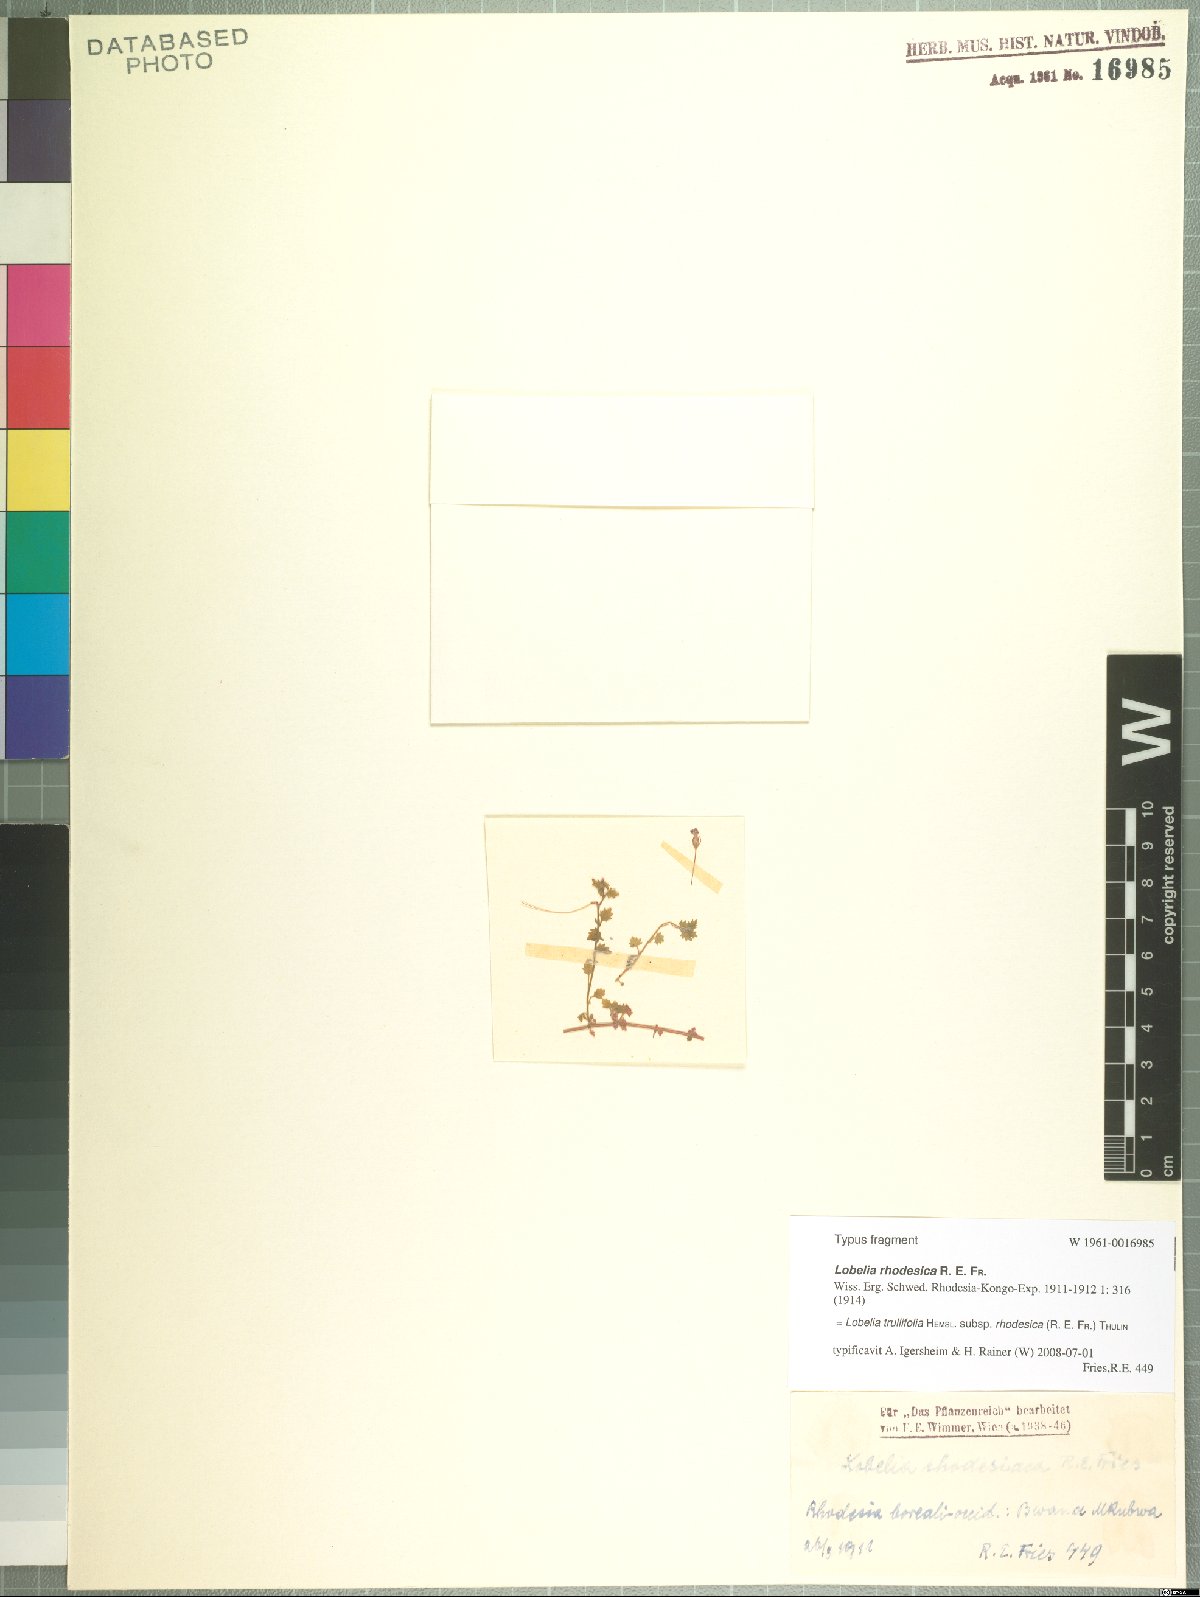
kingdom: Plantae
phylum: Tracheophyta
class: Magnoliopsida
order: Asterales
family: Campanulaceae
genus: Lobelia
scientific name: Lobelia trullifolia
